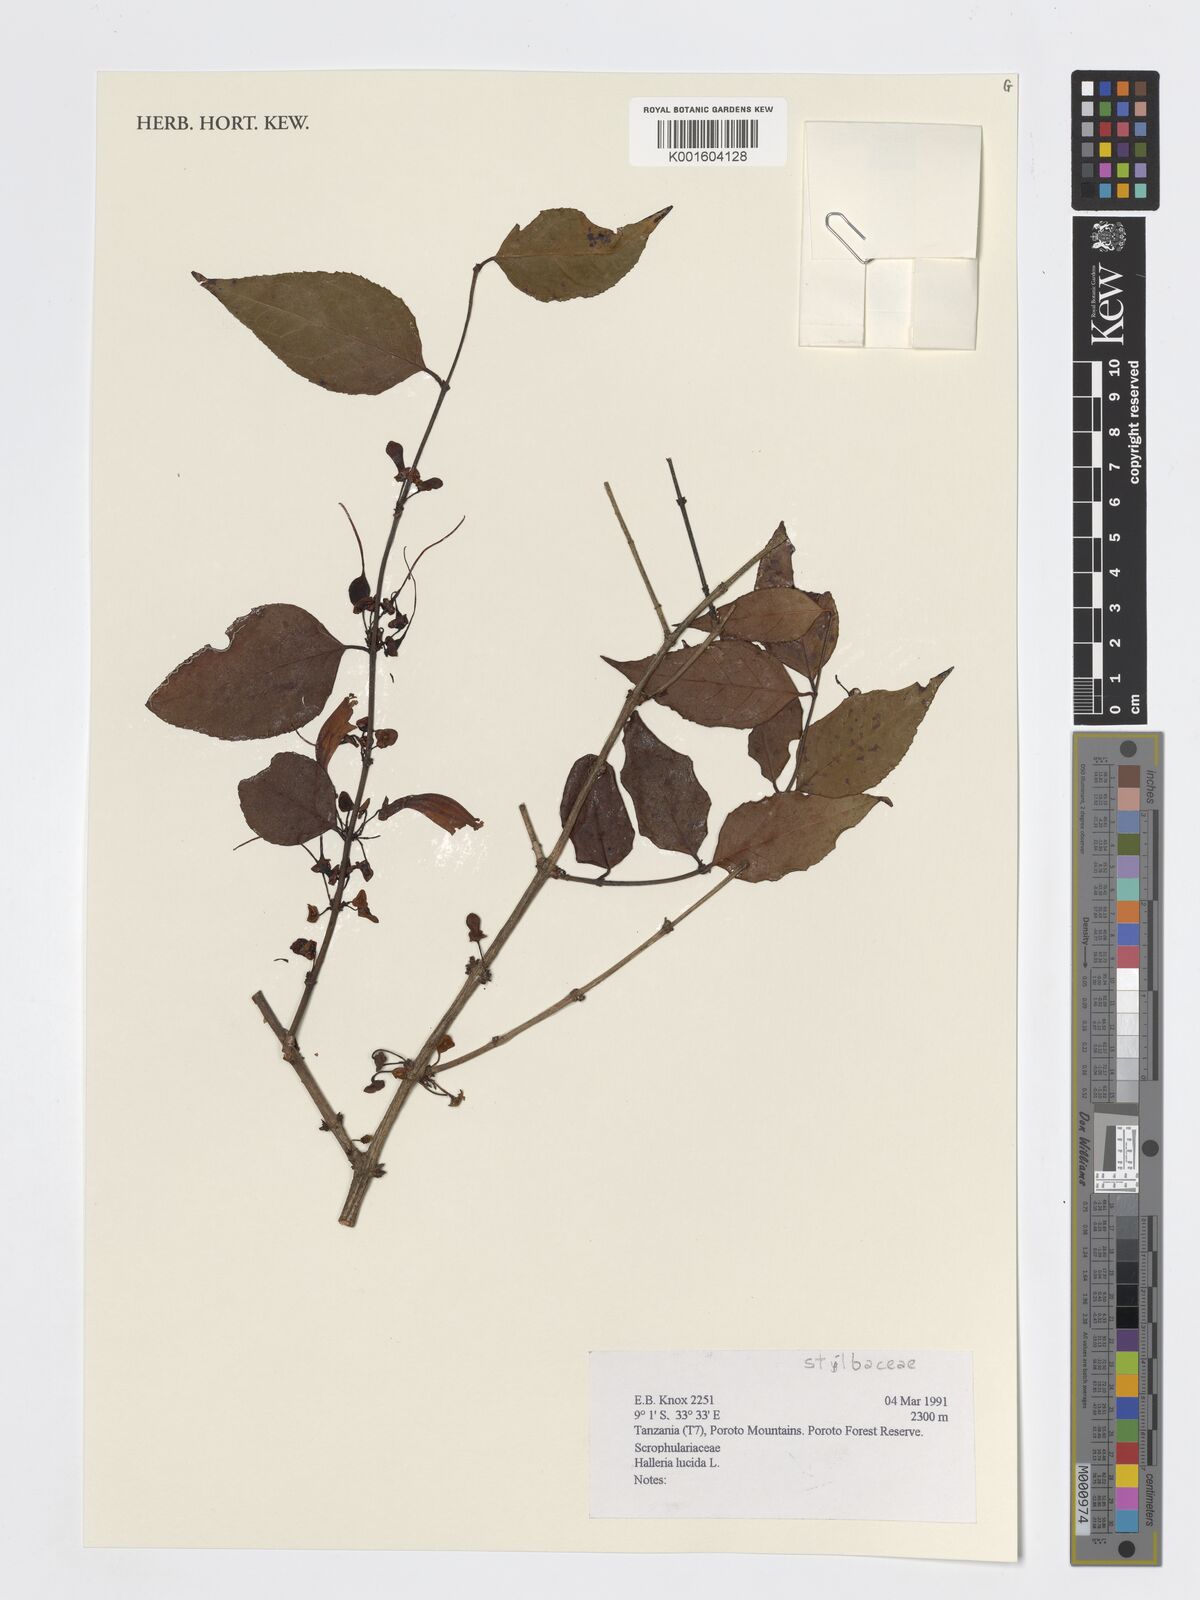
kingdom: Plantae
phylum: Tracheophyta
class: Magnoliopsida
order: Lamiales
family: Stilbaceae
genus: Halleria
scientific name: Halleria lucida
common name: Tree fuschia
